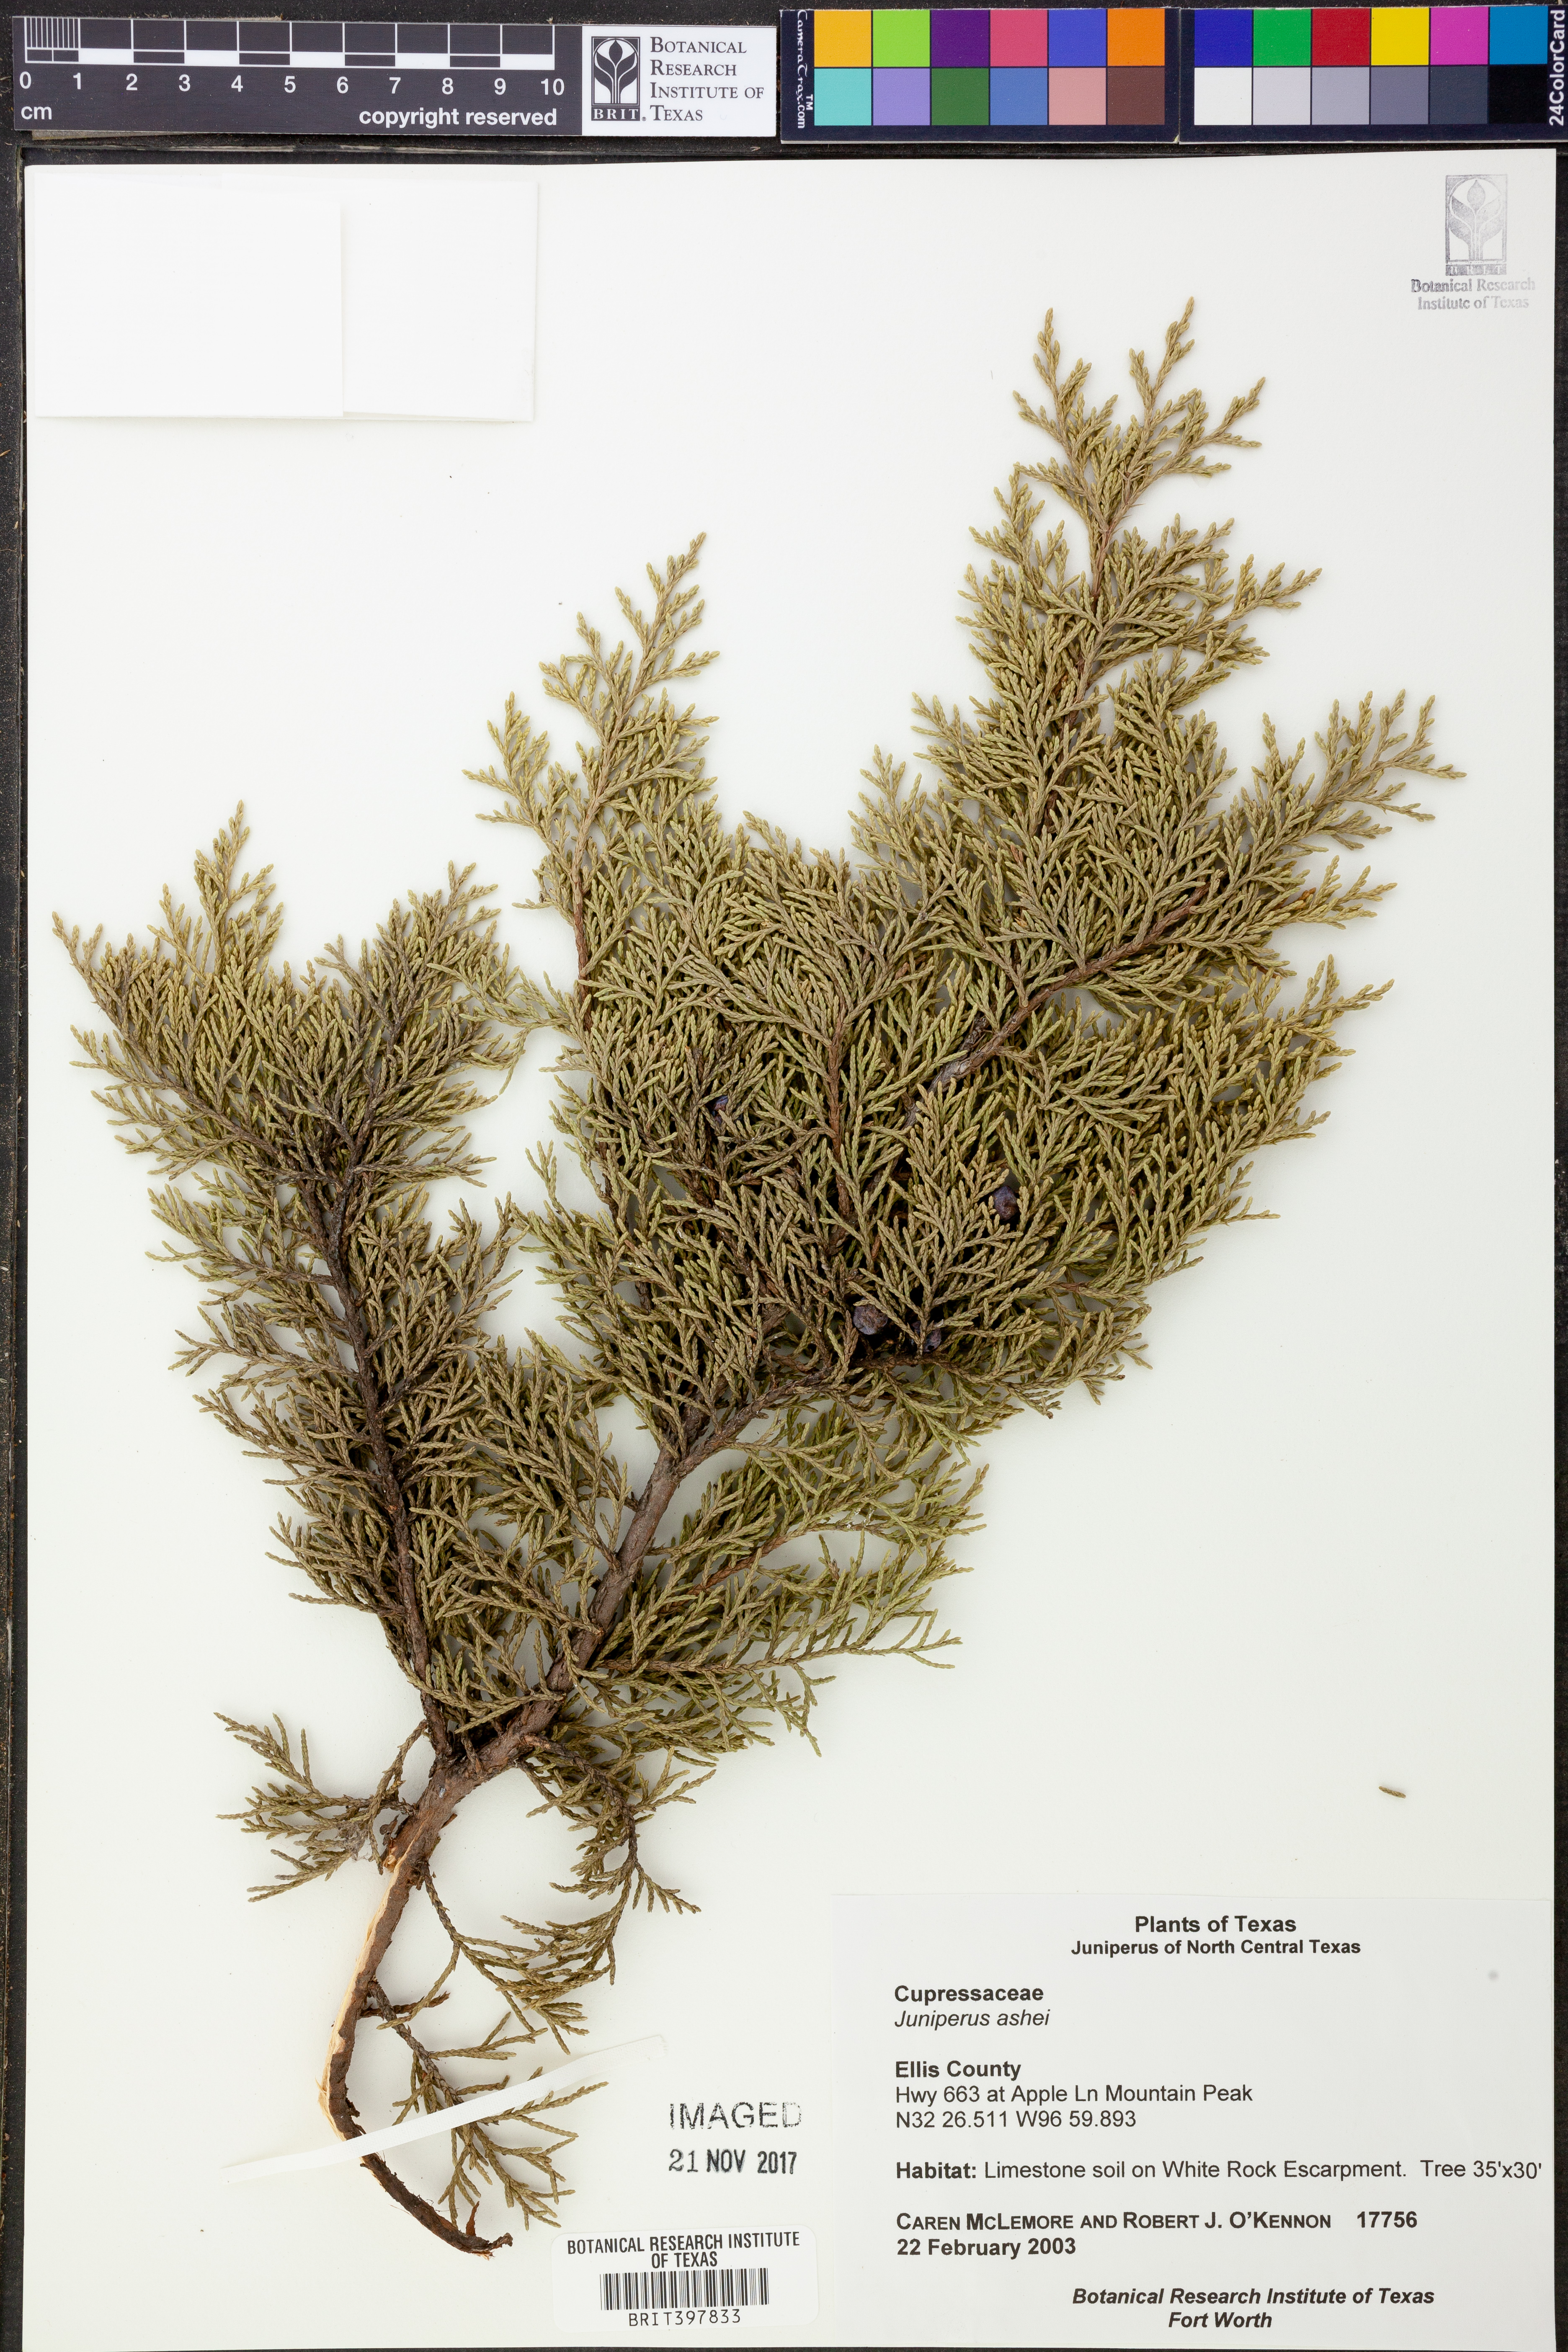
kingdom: Plantae
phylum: Tracheophyta
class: Pinopsida
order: Pinales
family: Cupressaceae
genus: Juniperus
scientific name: Juniperus ashei
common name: Mexican juniper
